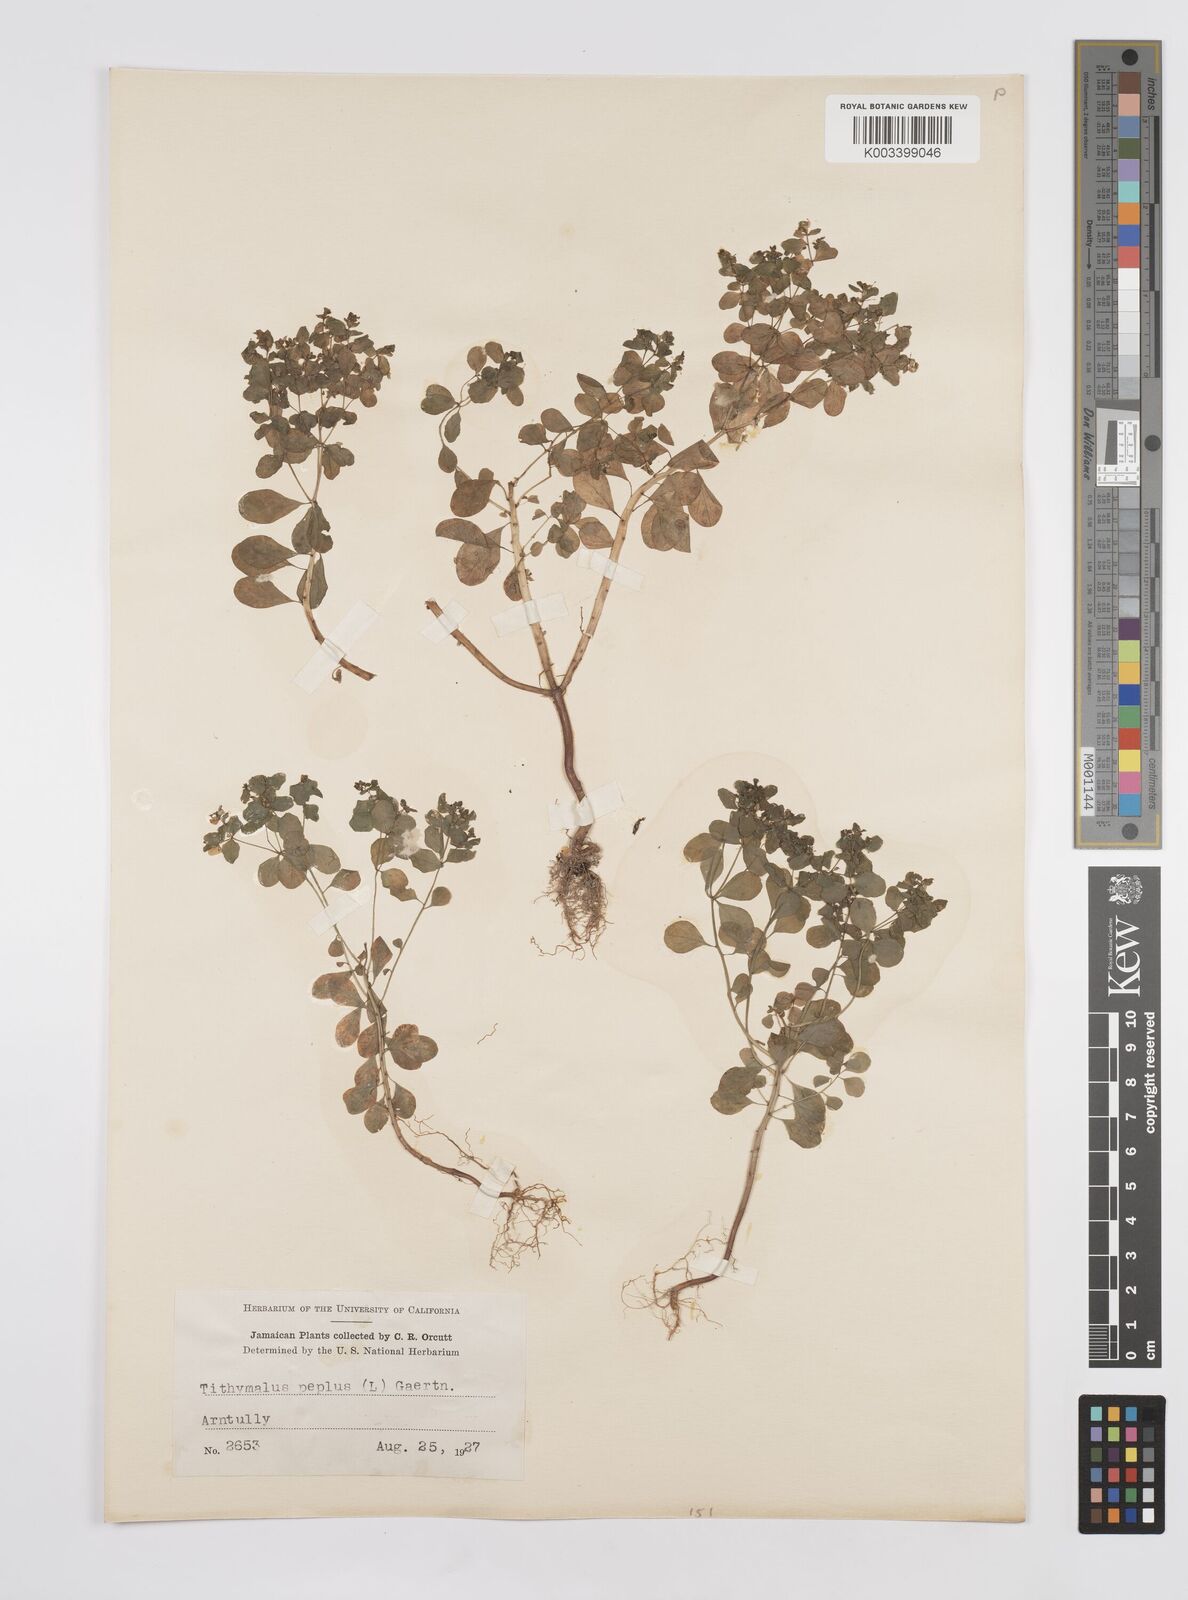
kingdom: Plantae
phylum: Tracheophyta
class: Magnoliopsida
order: Malpighiales
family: Euphorbiaceae
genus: Euphorbia
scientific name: Euphorbia peplus
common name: Petty spurge
